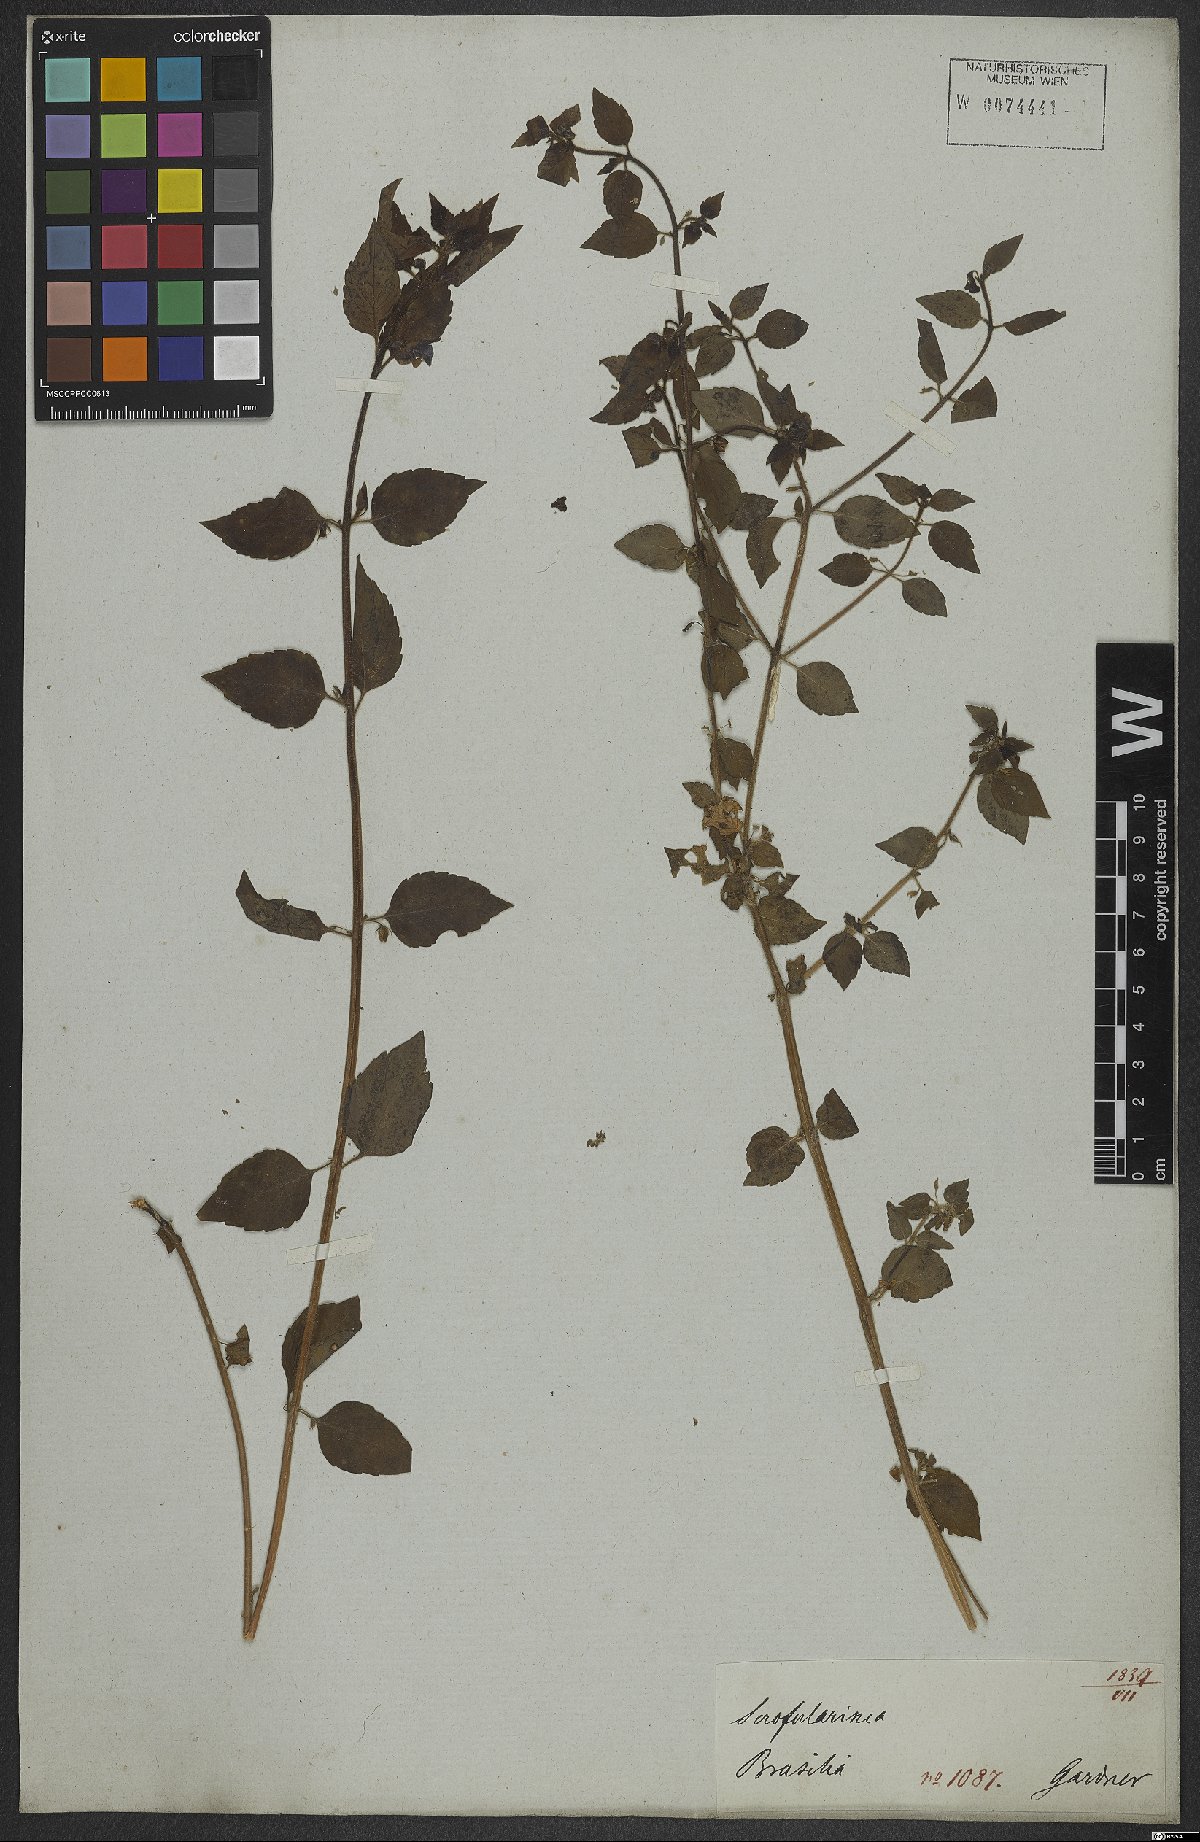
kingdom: Plantae
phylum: Tracheophyta
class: Magnoliopsida
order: Lamiales
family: Scrophulariaceae
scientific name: Scrophulariaceae
